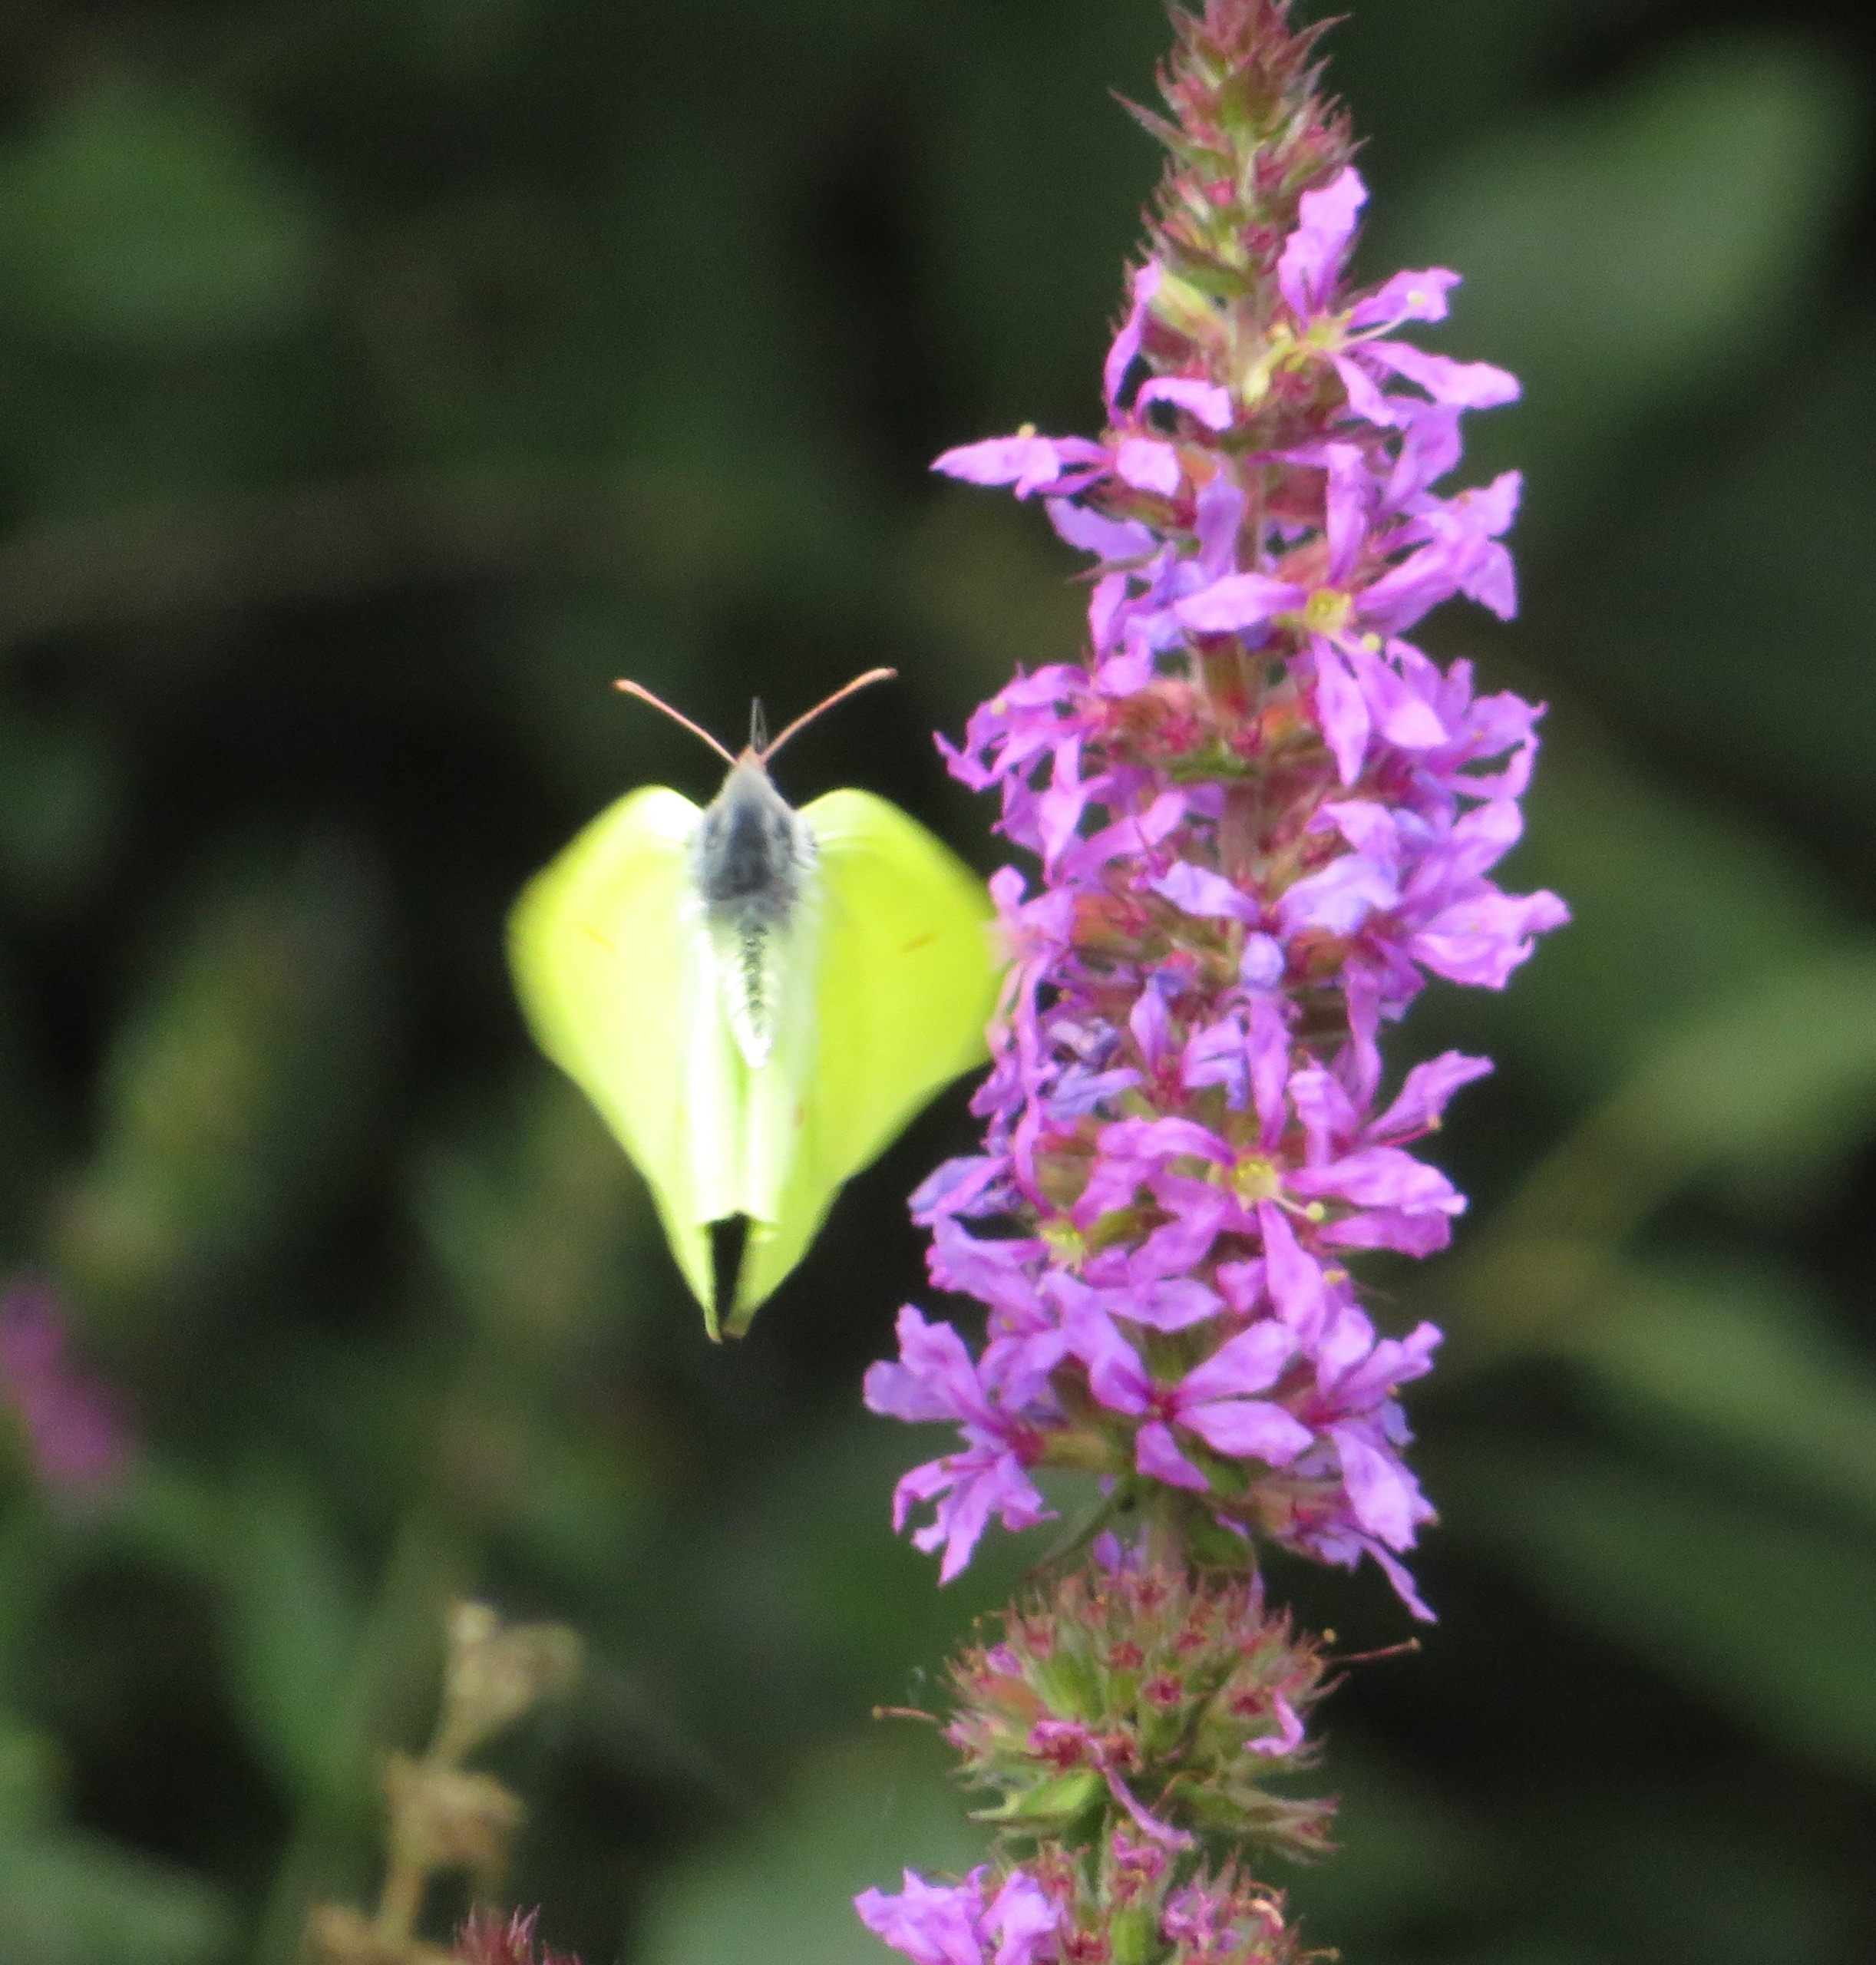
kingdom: Animalia
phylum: Arthropoda
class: Insecta
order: Lepidoptera
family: Pieridae
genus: Gonepteryx
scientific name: Gonepteryx rhamni
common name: Citronsommerfugl
